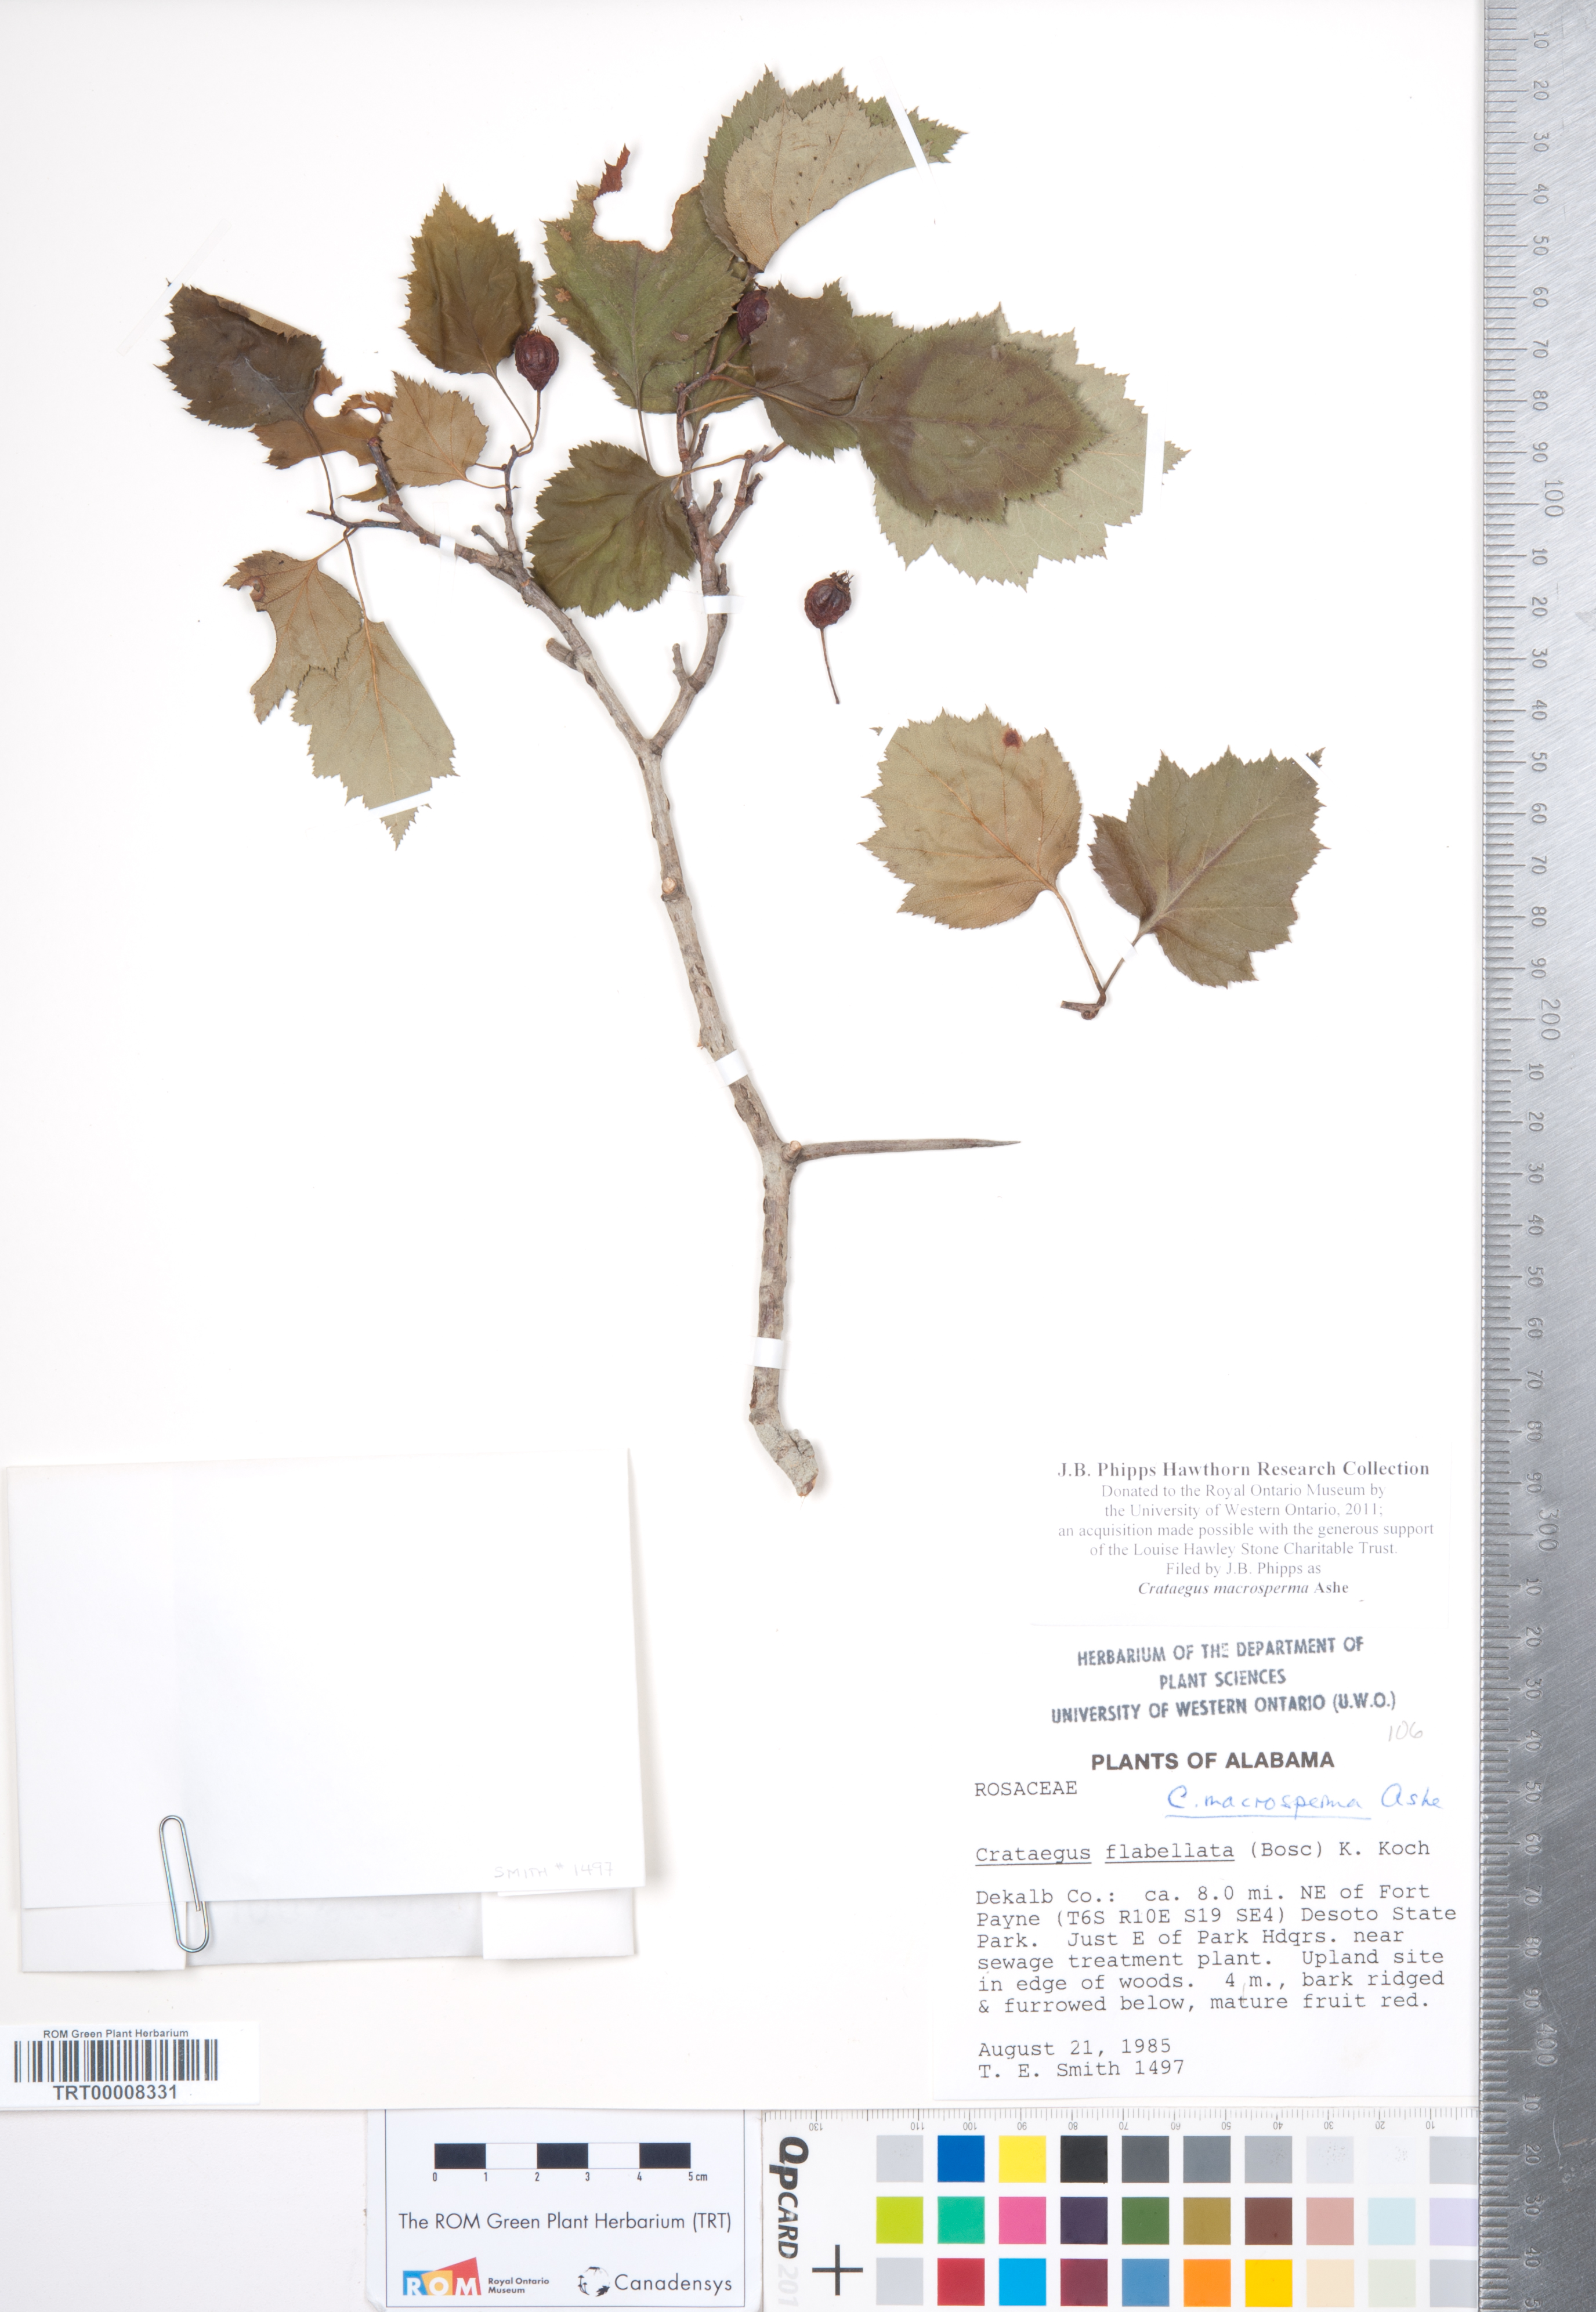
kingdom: Plantae
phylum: Tracheophyta
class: Magnoliopsida
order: Rosales
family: Rosaceae
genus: Crataegus
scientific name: Crataegus macrosperma
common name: Variable hawthorn
